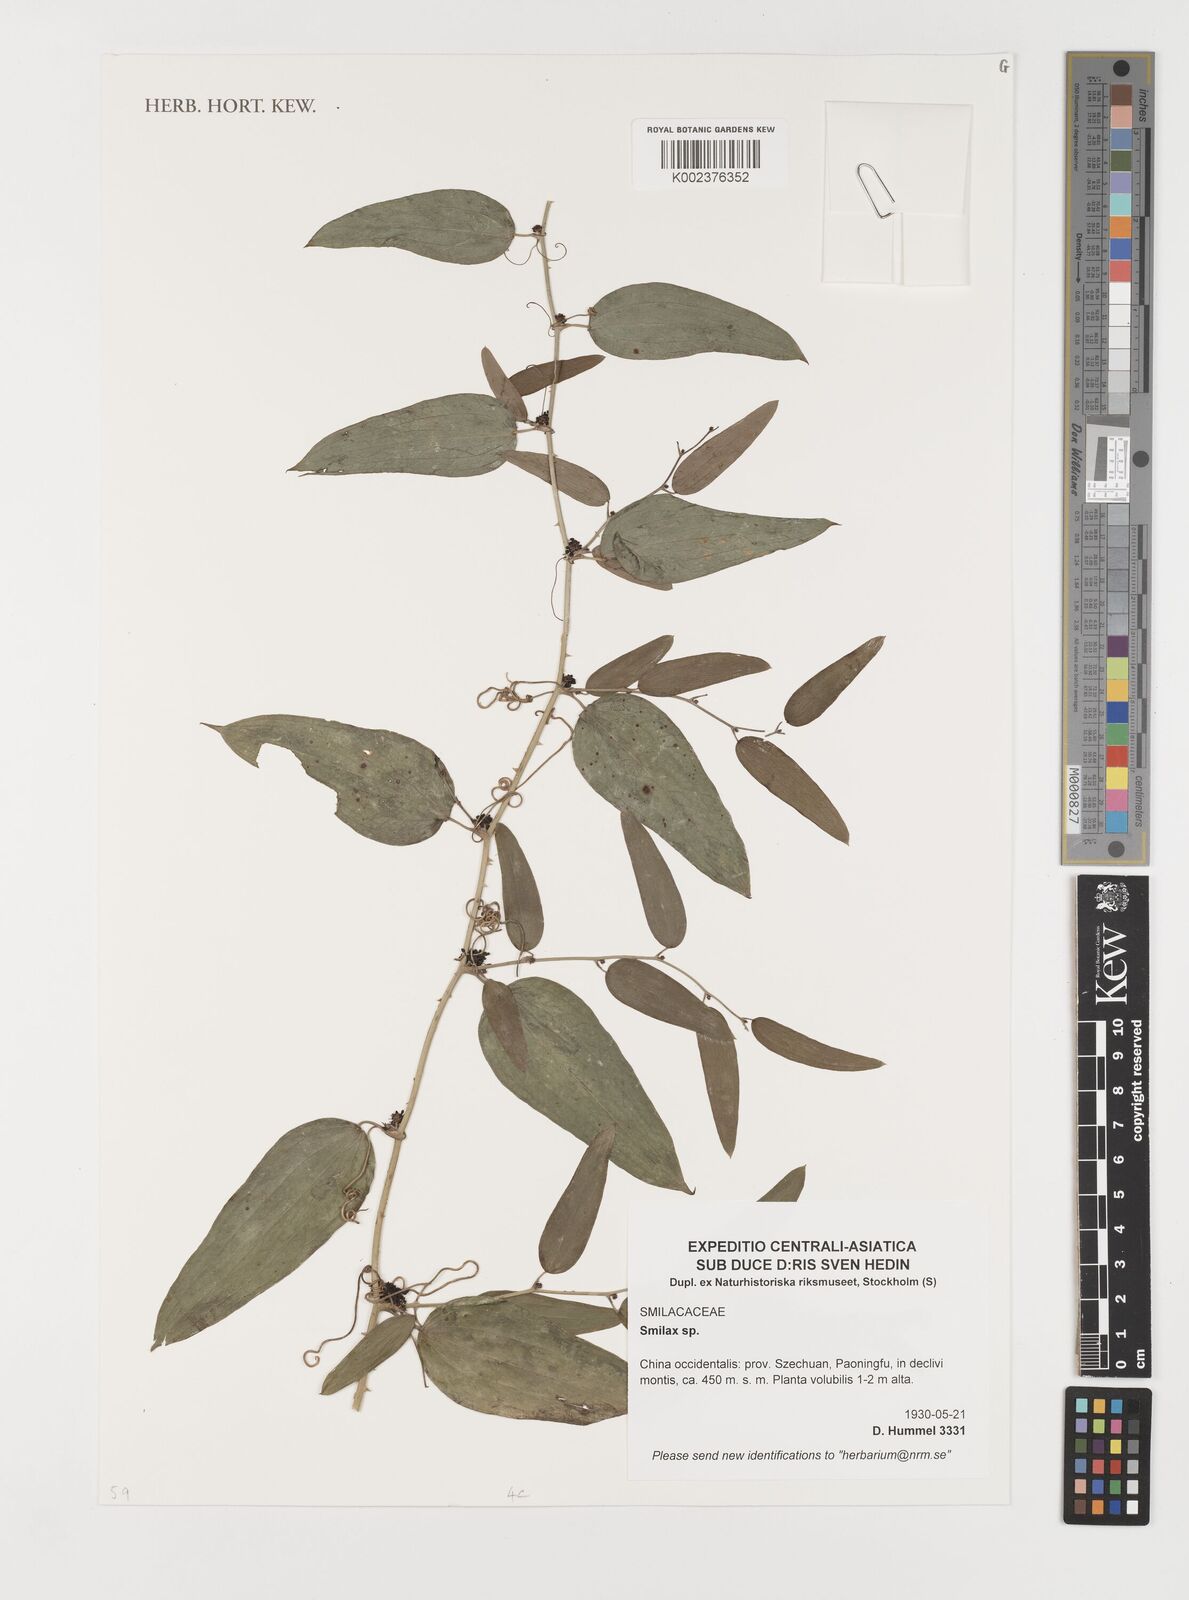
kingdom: Plantae
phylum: Tracheophyta
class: Liliopsida
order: Liliales
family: Smilacaceae
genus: Smilax
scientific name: Smilax
